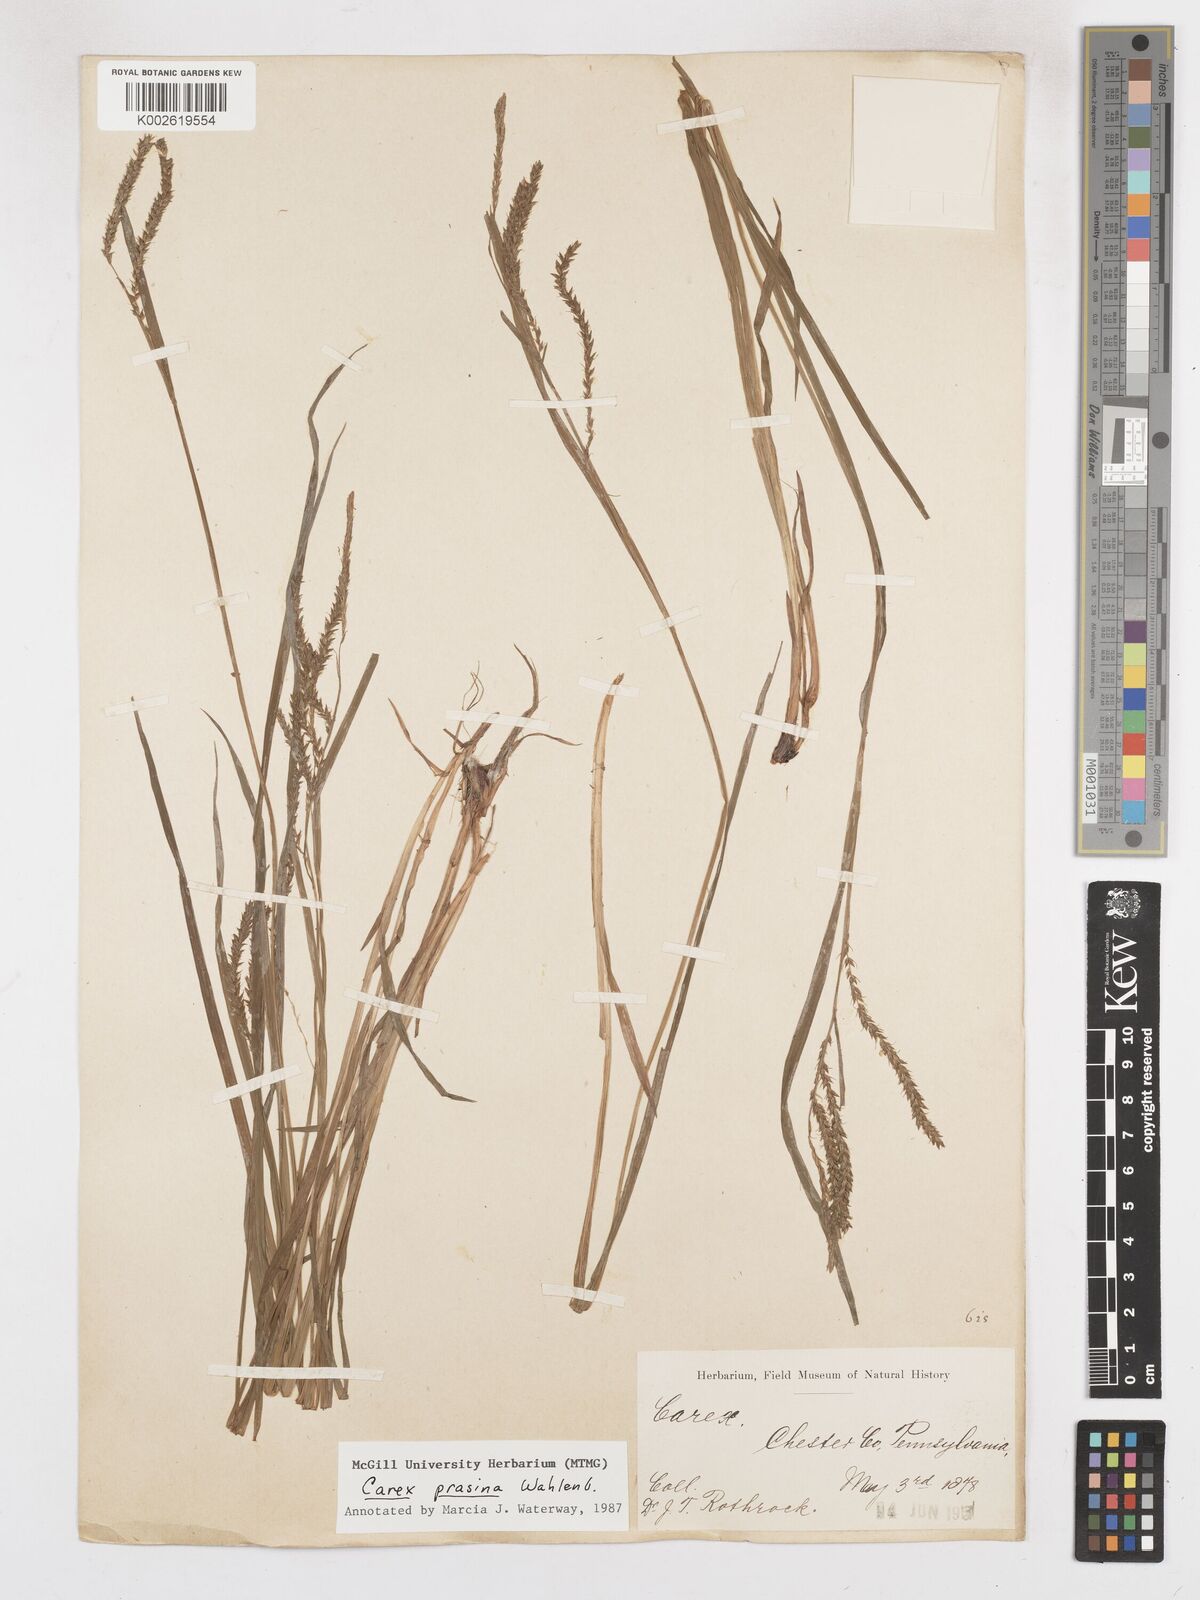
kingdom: Plantae
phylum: Tracheophyta
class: Liliopsida
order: Poales
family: Cyperaceae
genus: Carex
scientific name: Carex prasina
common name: Drooping sedge
